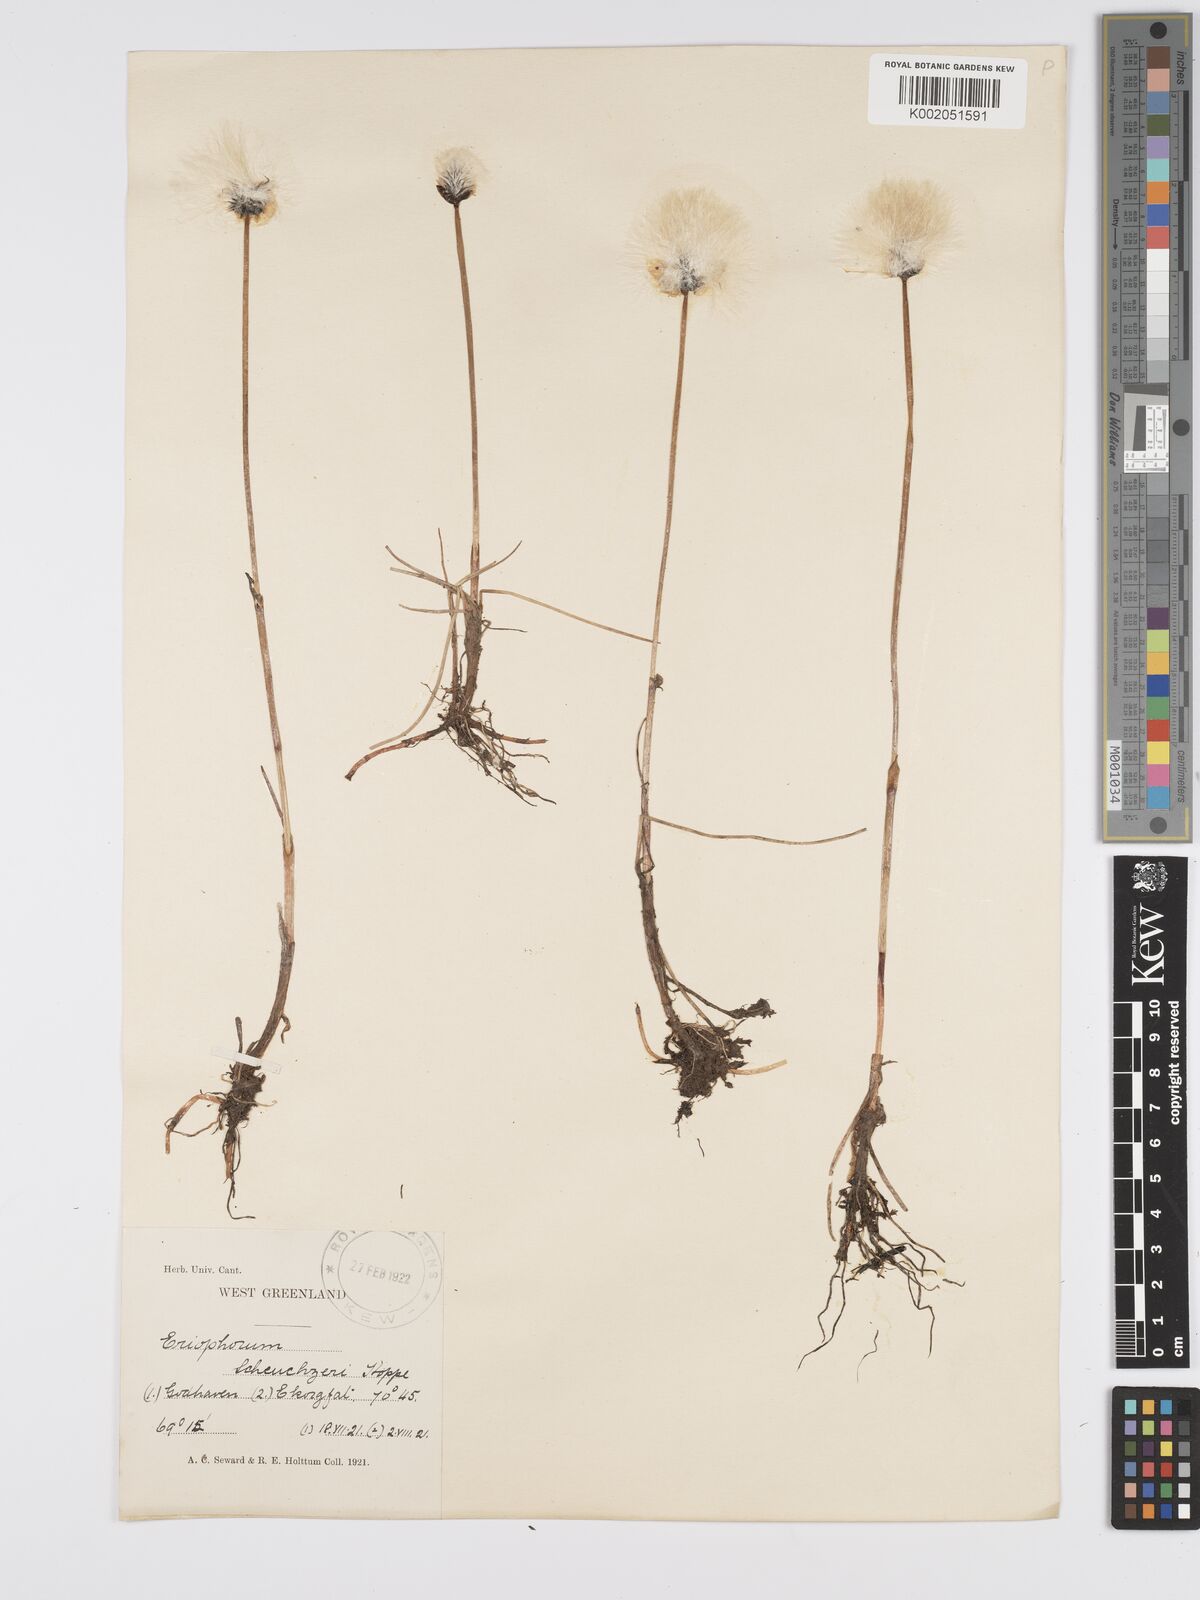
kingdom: Plantae
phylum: Tracheophyta
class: Liliopsida
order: Poales
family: Cyperaceae
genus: Eriophorum
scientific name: Eriophorum scheuchzeri
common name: Scheuchzer's cottongrass
